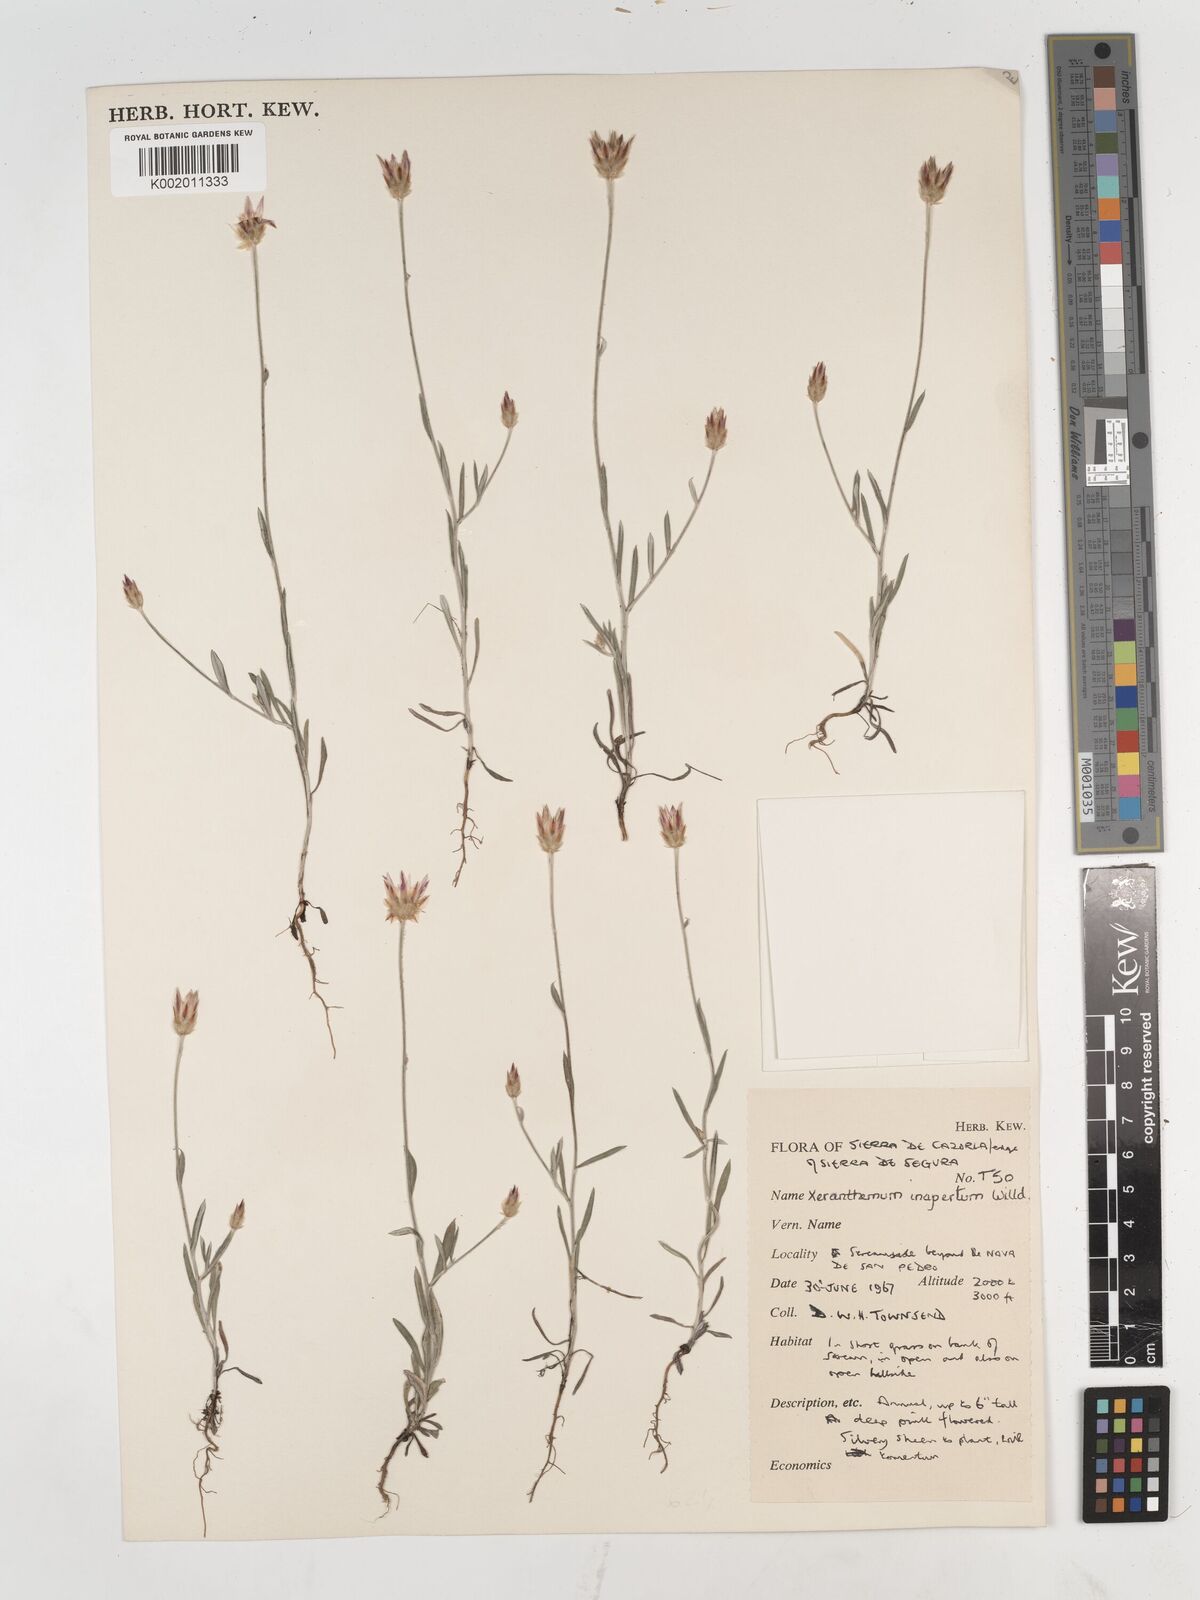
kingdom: Plantae
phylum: Tracheophyta
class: Magnoliopsida
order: Asterales
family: Asteraceae
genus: Xeranthemum
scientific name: Xeranthemum inapertum
